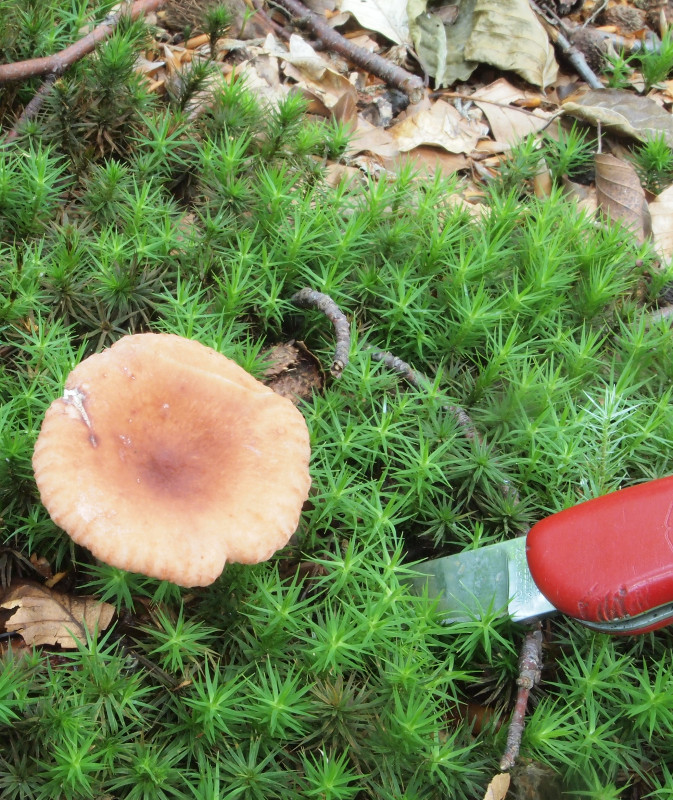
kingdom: Fungi
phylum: Basidiomycota
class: Agaricomycetes
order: Russulales
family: Russulaceae
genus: Lactarius
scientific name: Lactarius subdulcis
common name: sødlig mælkehat
